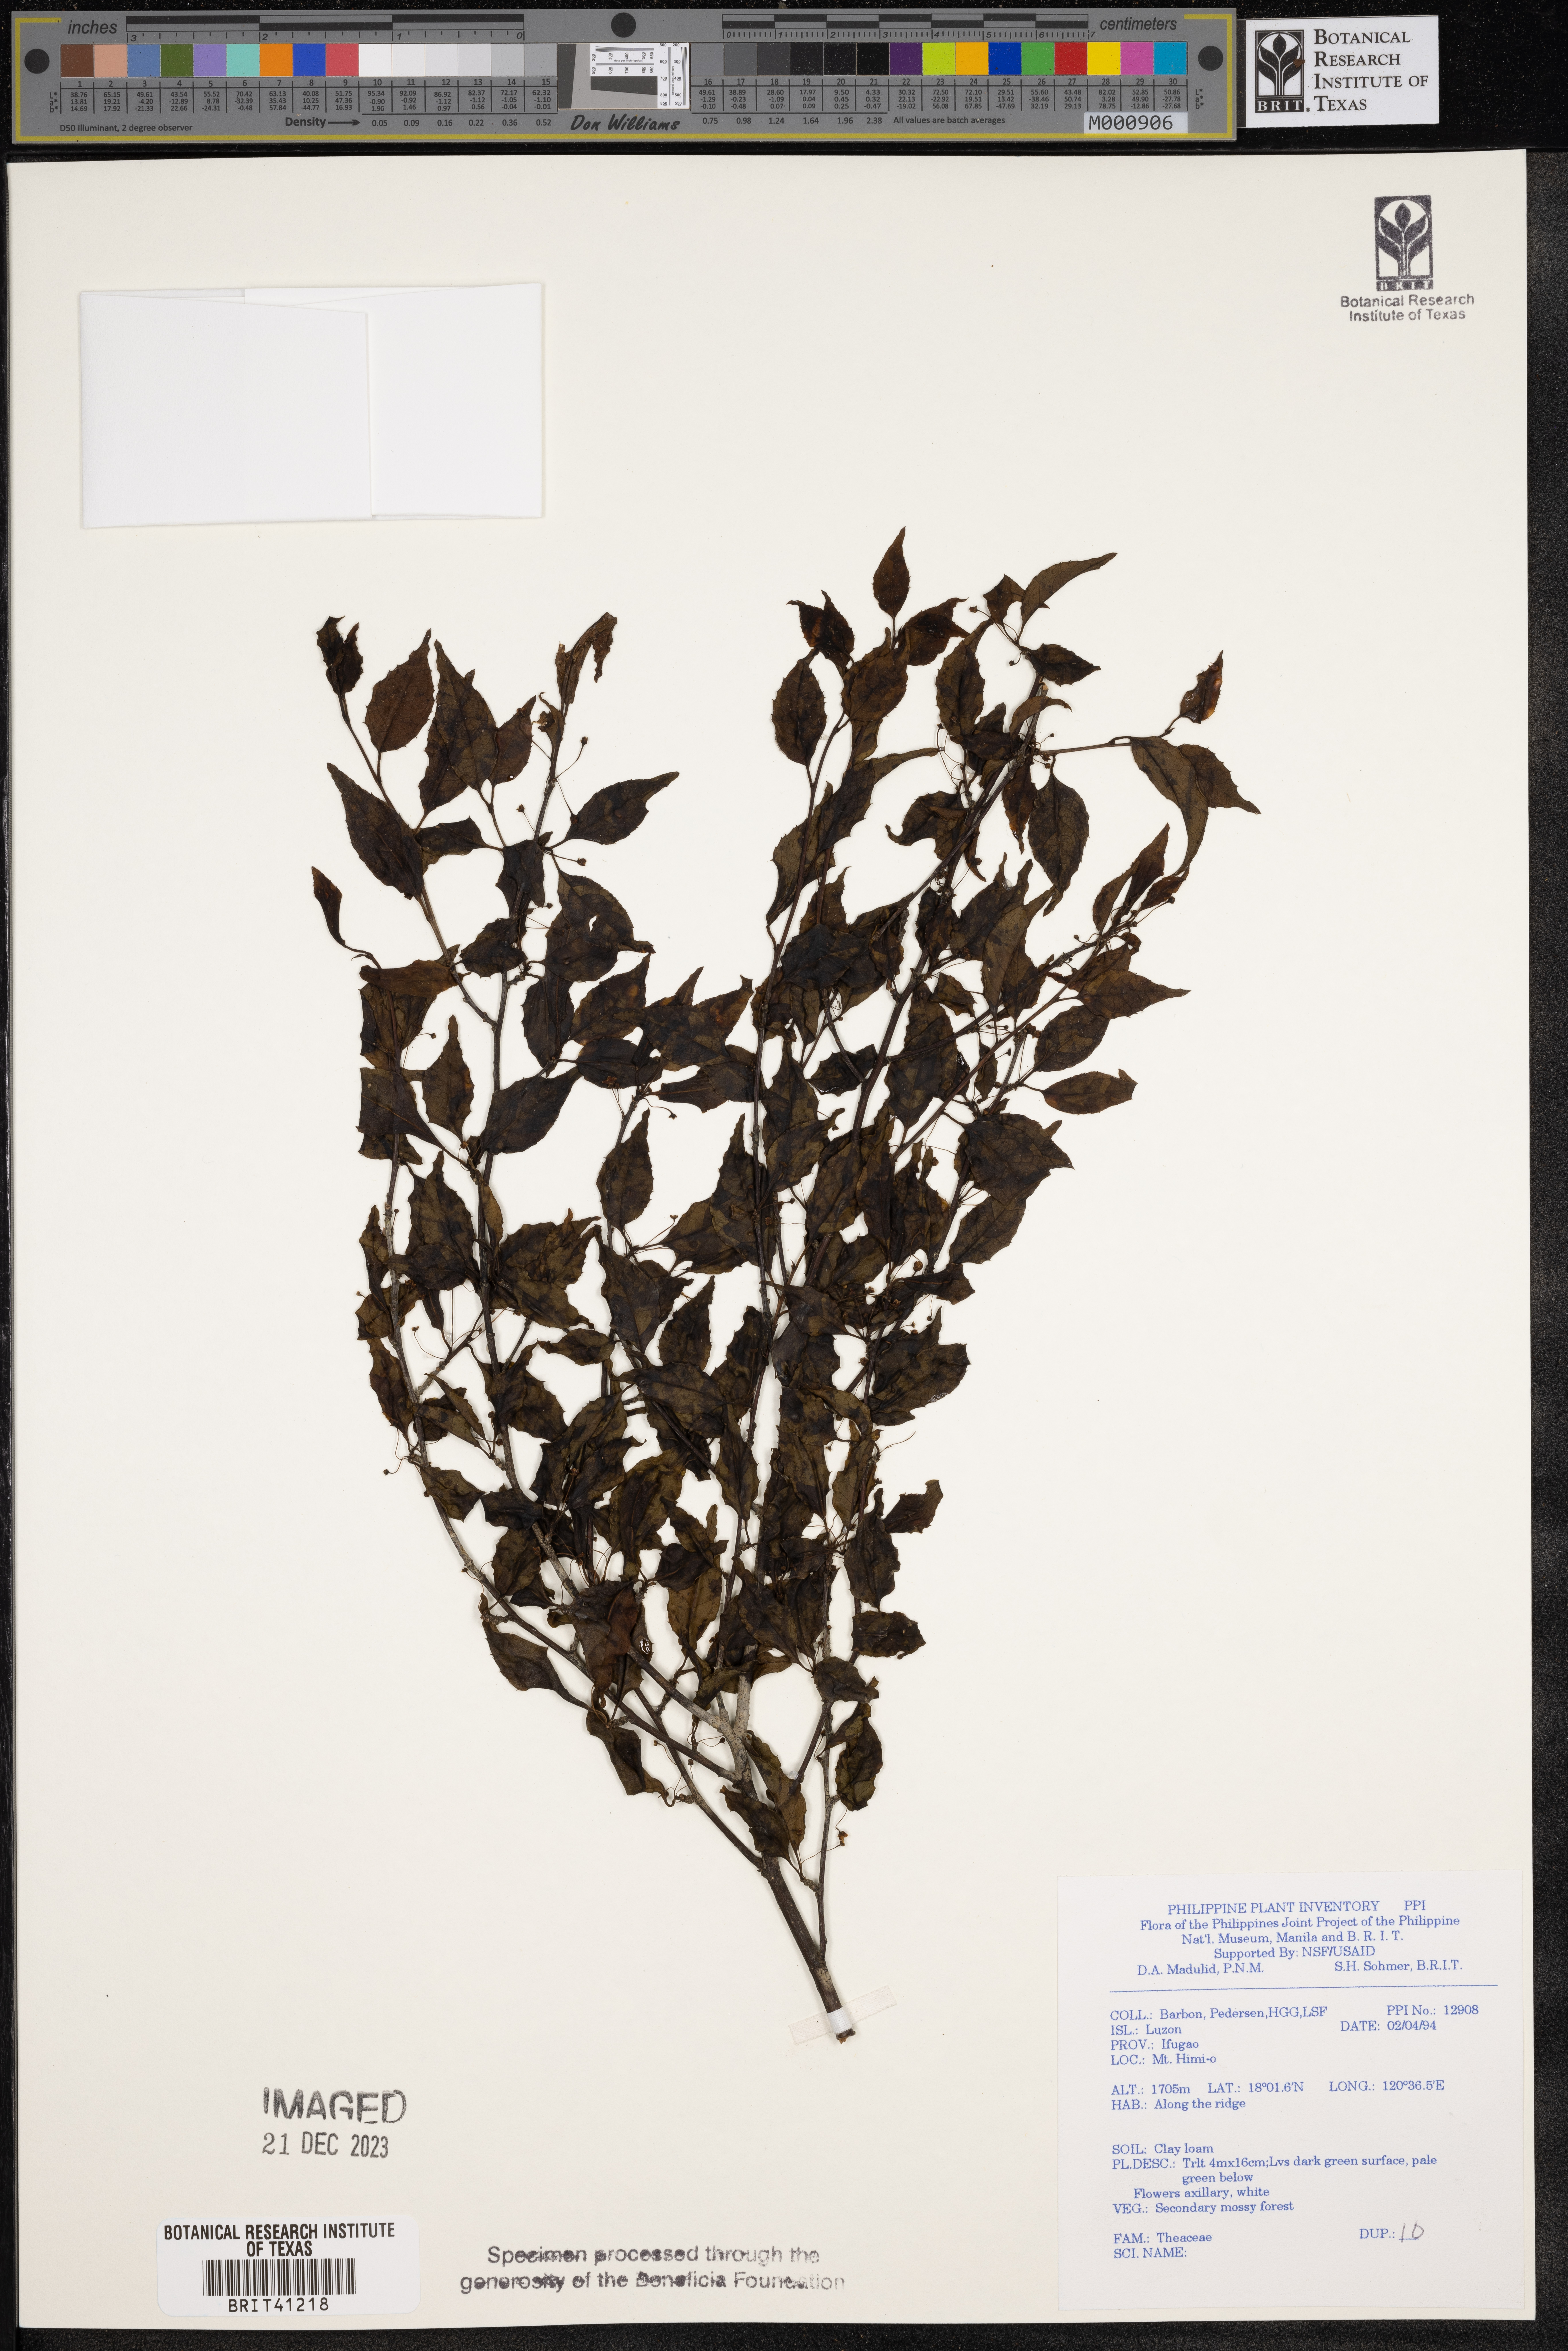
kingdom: Plantae
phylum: Tracheophyta
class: Magnoliopsida
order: Ericales
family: Theaceae
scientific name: Theaceae
